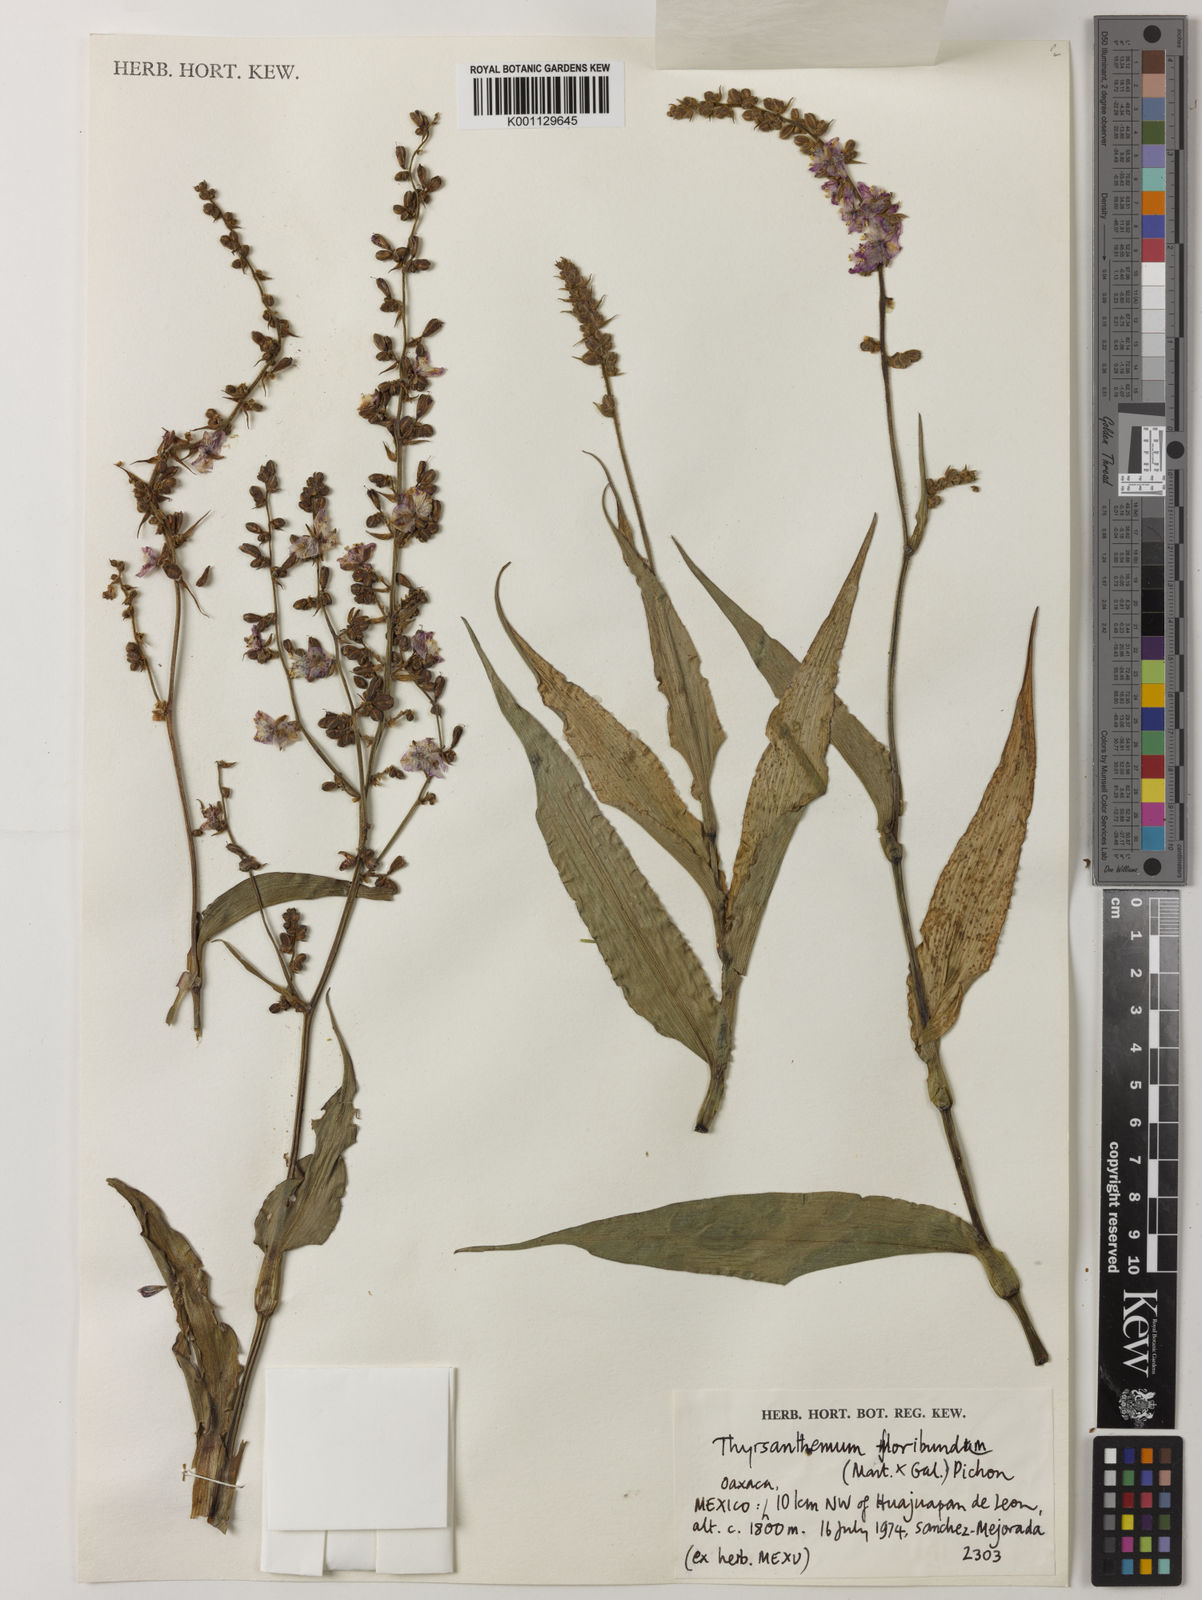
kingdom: Plantae
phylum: Tracheophyta
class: Liliopsida
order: Commelinales
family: Commelinaceae
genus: Thyrsanthemum
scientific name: Thyrsanthemum floribundum
